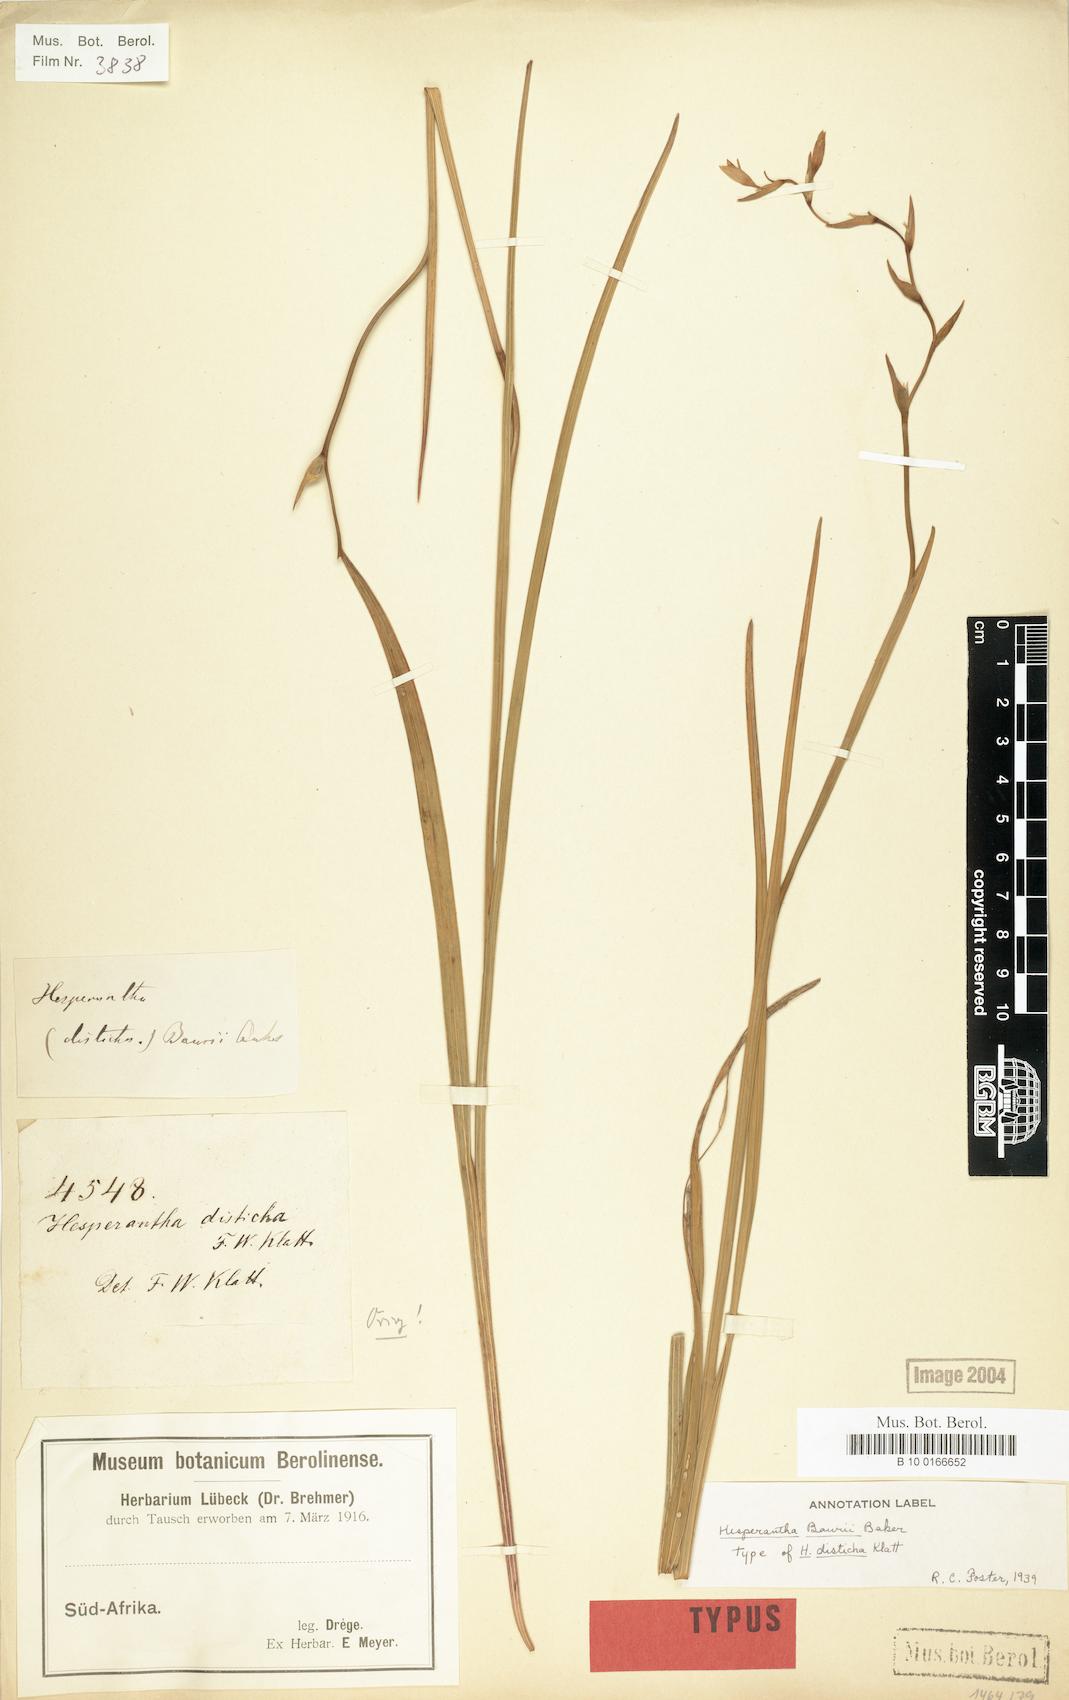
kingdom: Plantae
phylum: Tracheophyta
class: Liliopsida
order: Asparagales
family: Iridaceae
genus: Hesperantha
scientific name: Hesperantha baurii
